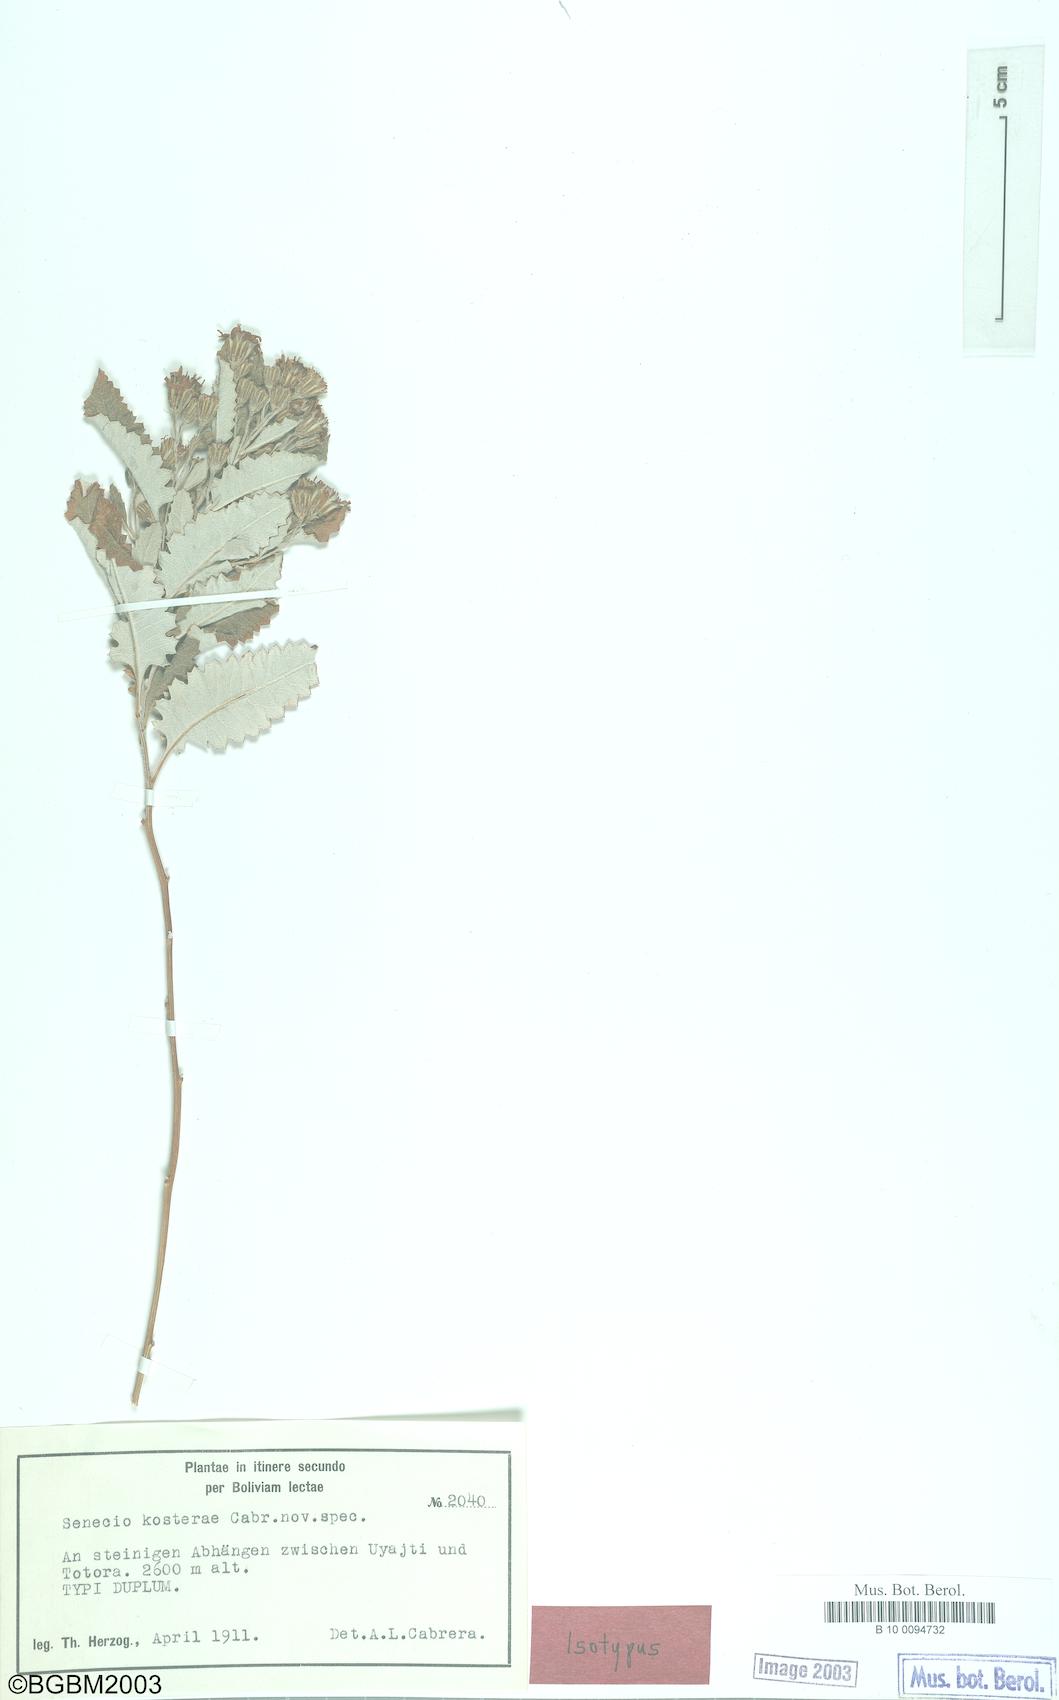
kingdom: Plantae
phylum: Tracheophyta
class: Magnoliopsida
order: Asterales
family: Asteraceae
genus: Senecio
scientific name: Senecio kosterae
